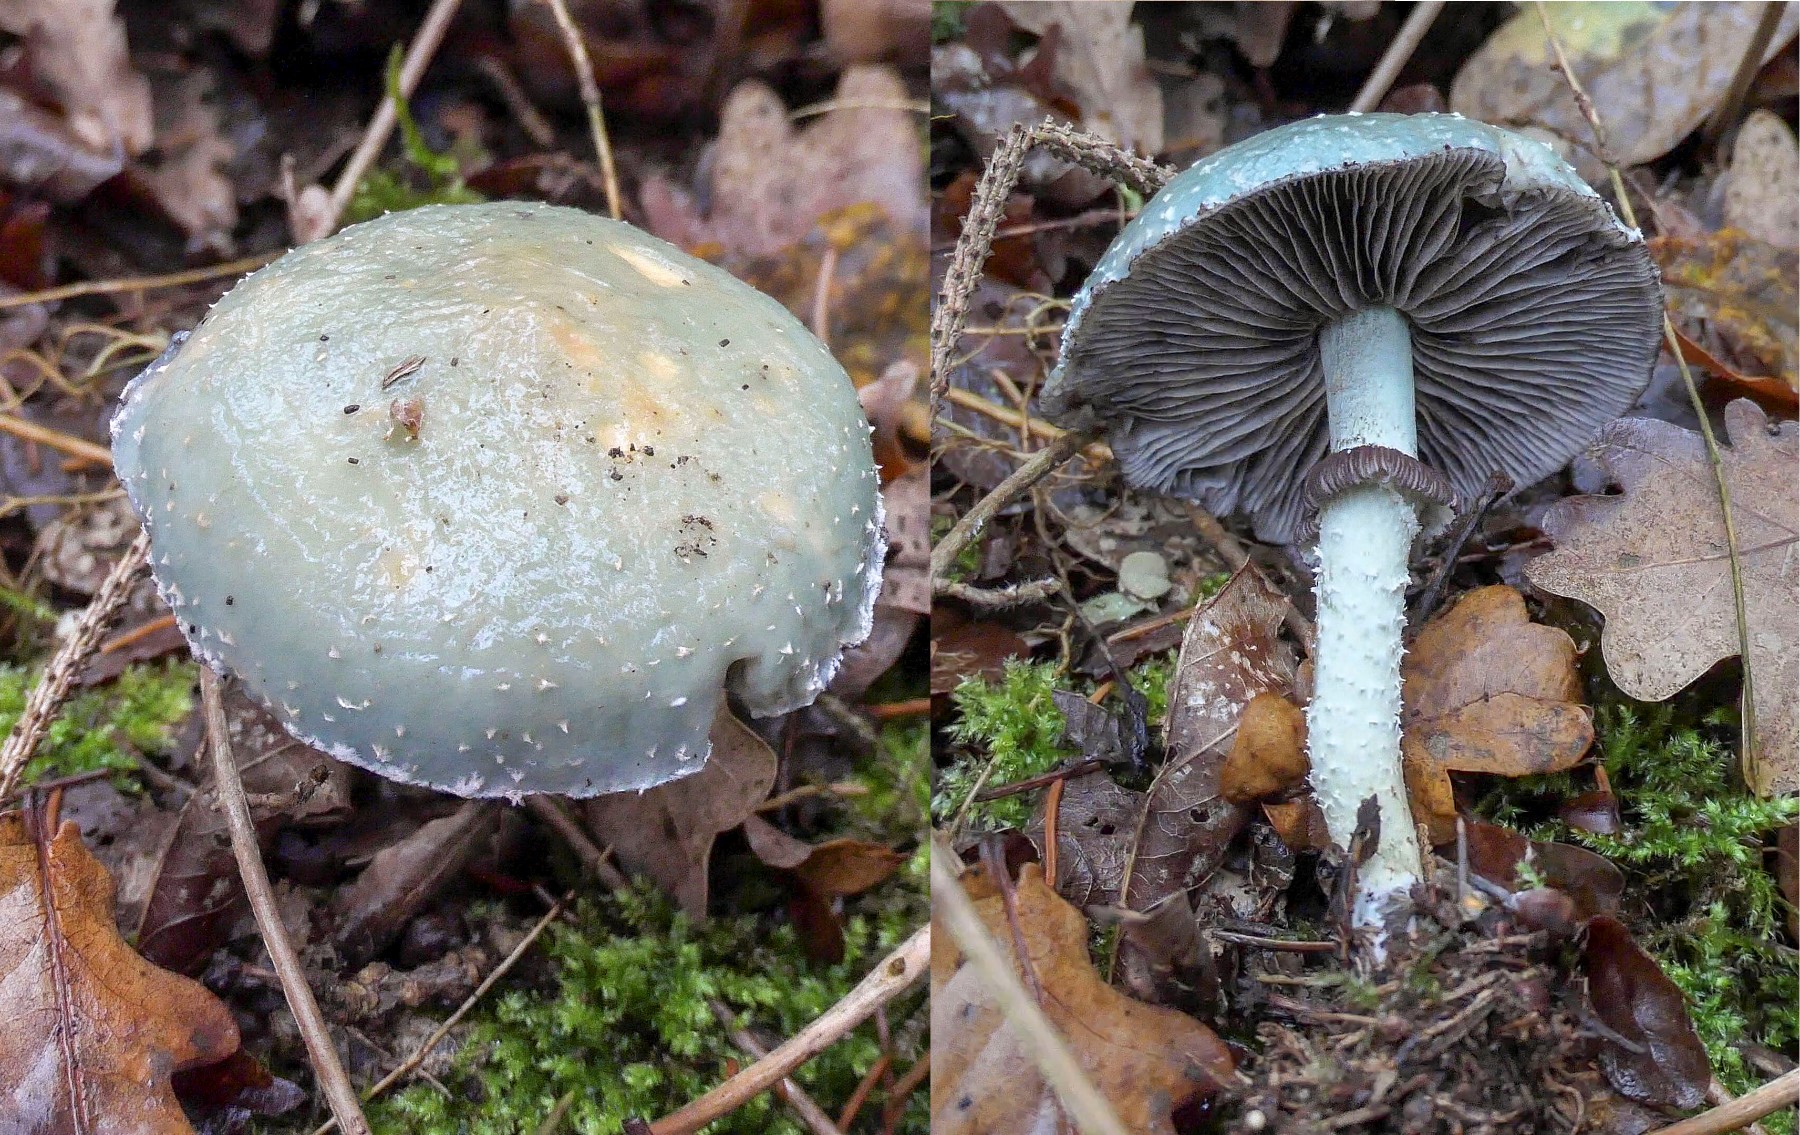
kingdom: Fungi
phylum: Basidiomycota
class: Agaricomycetes
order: Agaricales
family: Strophariaceae
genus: Stropharia
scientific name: Stropharia aeruginosa
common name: spanskgrøn bredblad
